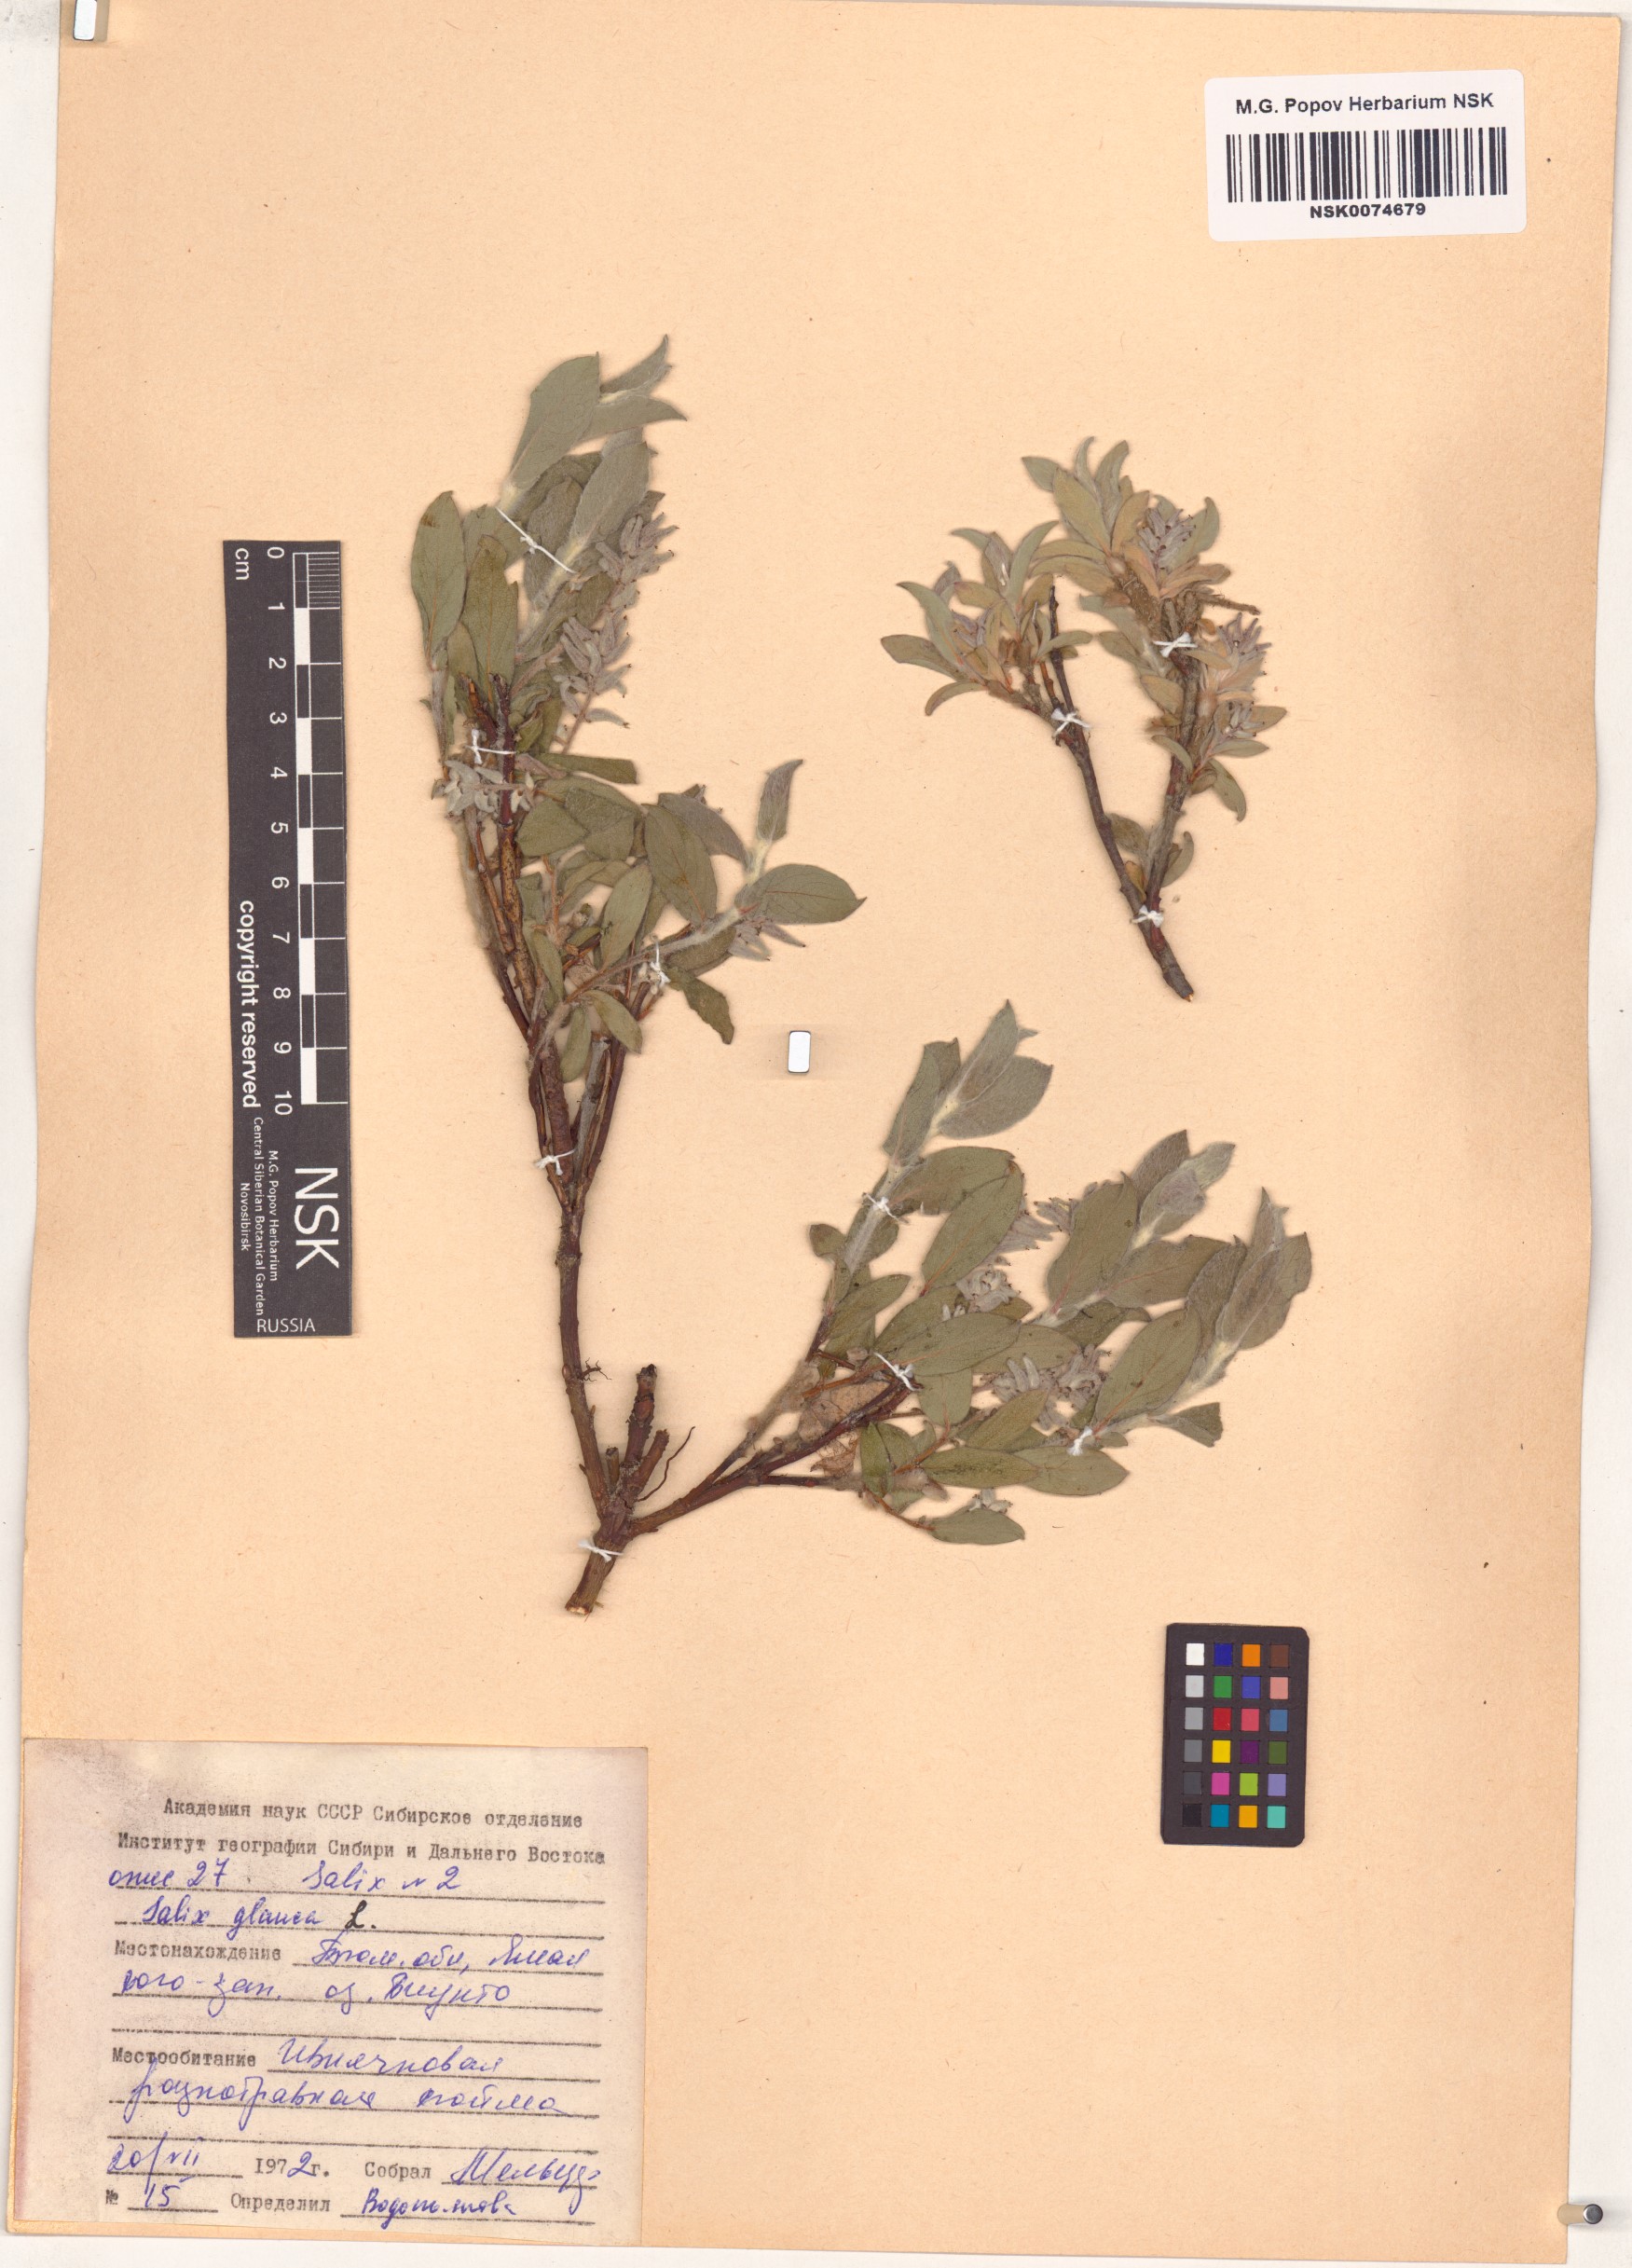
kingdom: Plantae
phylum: Tracheophyta
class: Magnoliopsida
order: Malpighiales
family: Salicaceae
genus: Salix
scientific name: Salix glauca
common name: Glaucous willow
